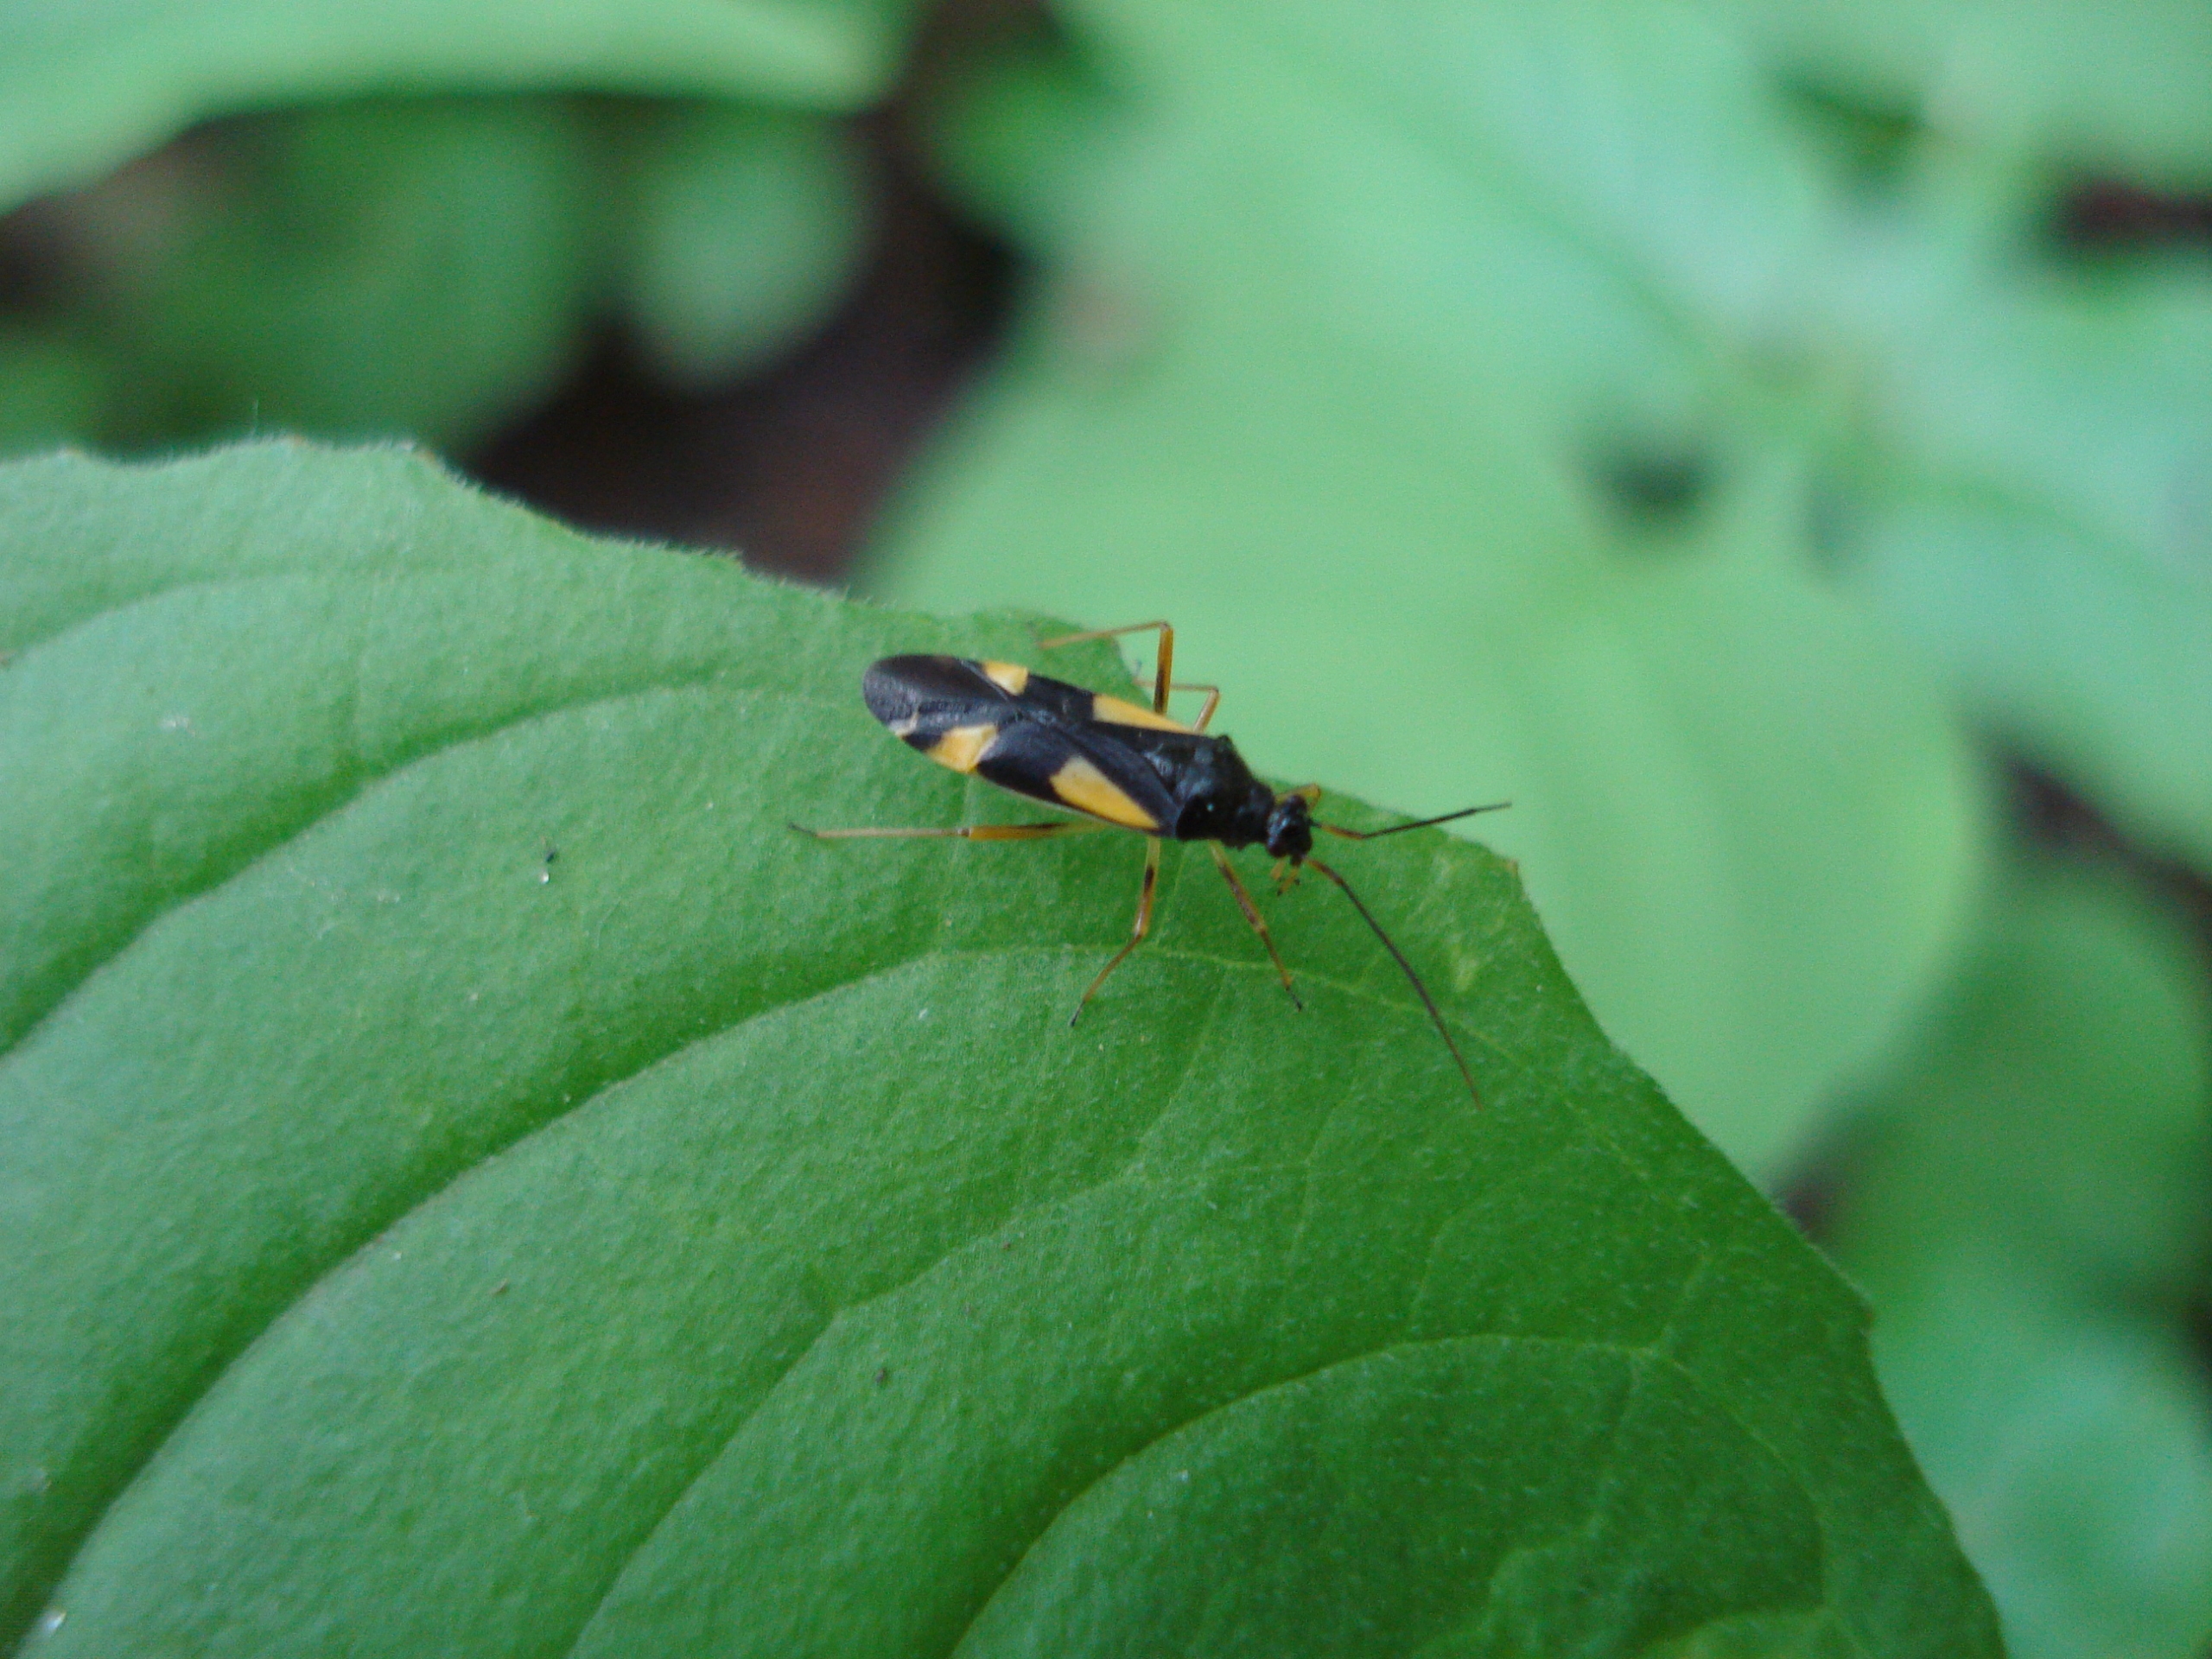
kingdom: Animalia
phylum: Arthropoda
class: Insecta
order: Hemiptera
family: Miridae
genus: Dryophilocoris
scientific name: Dryophilocoris flavoquadrimaculatus
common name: Fireplettet blomstertæge
